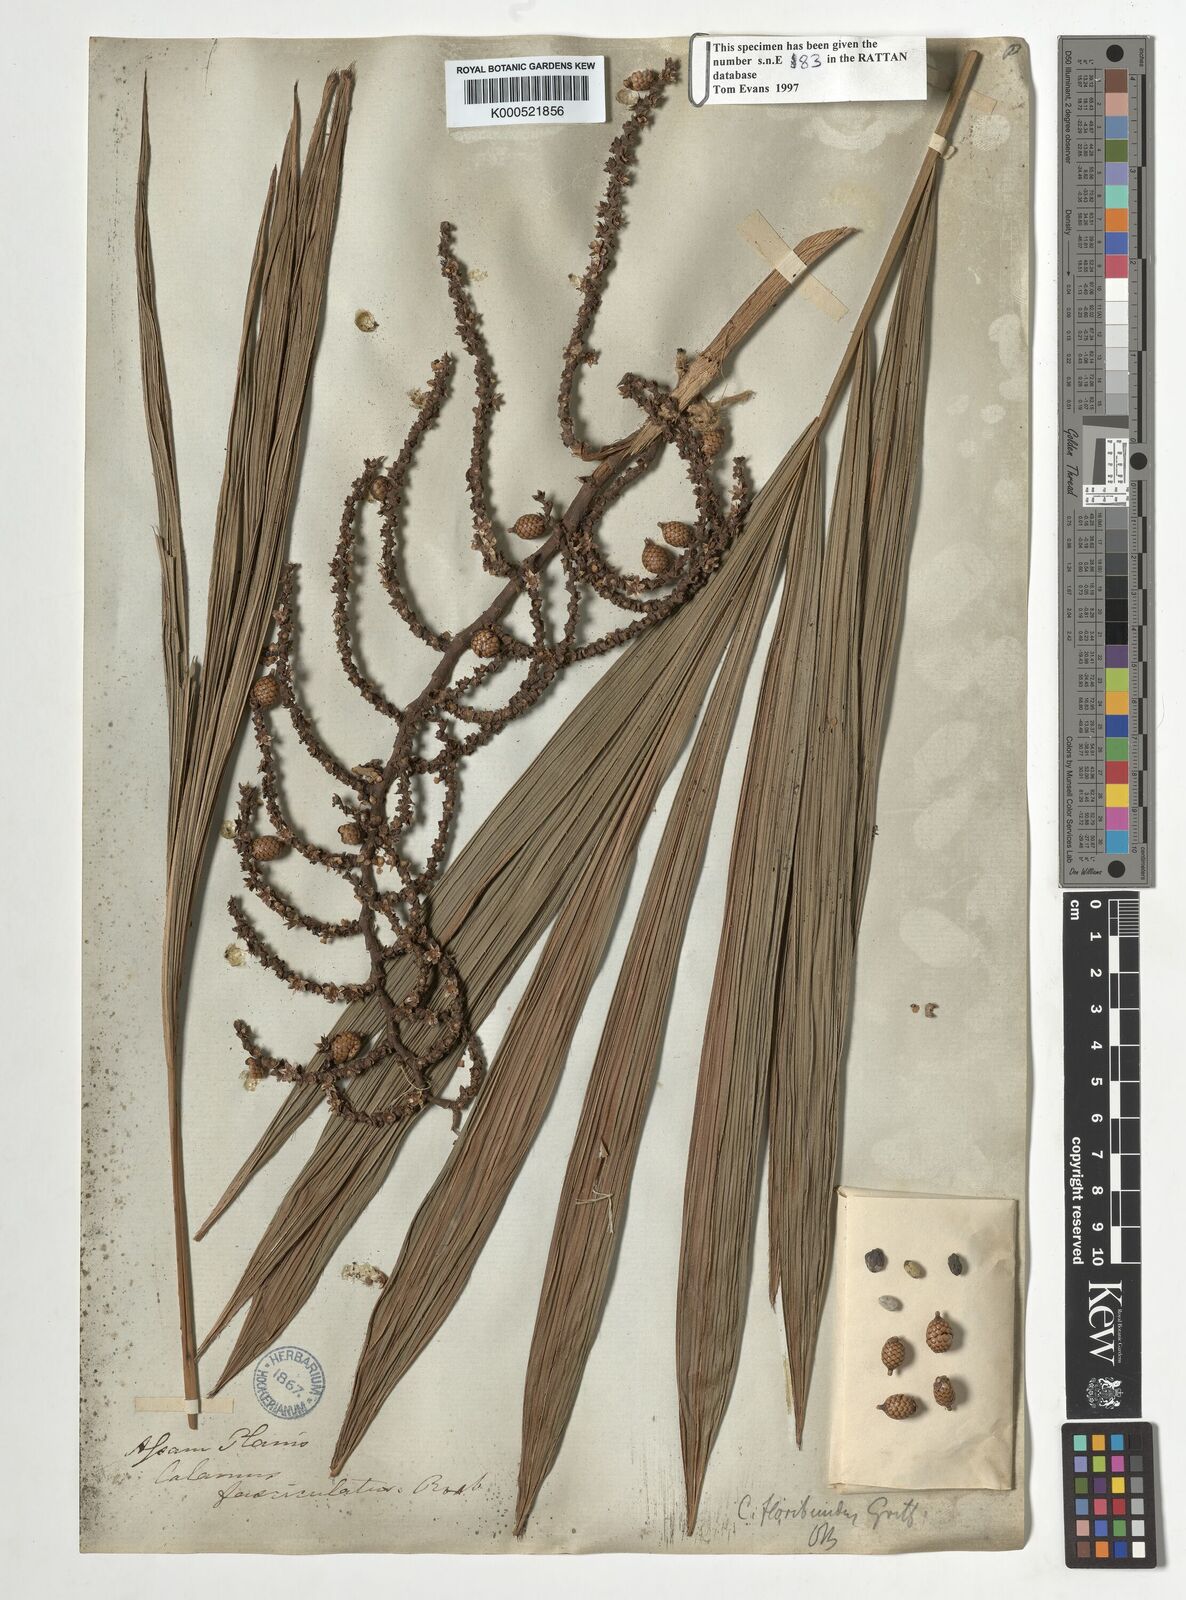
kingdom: Plantae
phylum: Tracheophyta
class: Liliopsida
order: Arecales
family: Arecaceae
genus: Calamus
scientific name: Calamus floribundus
